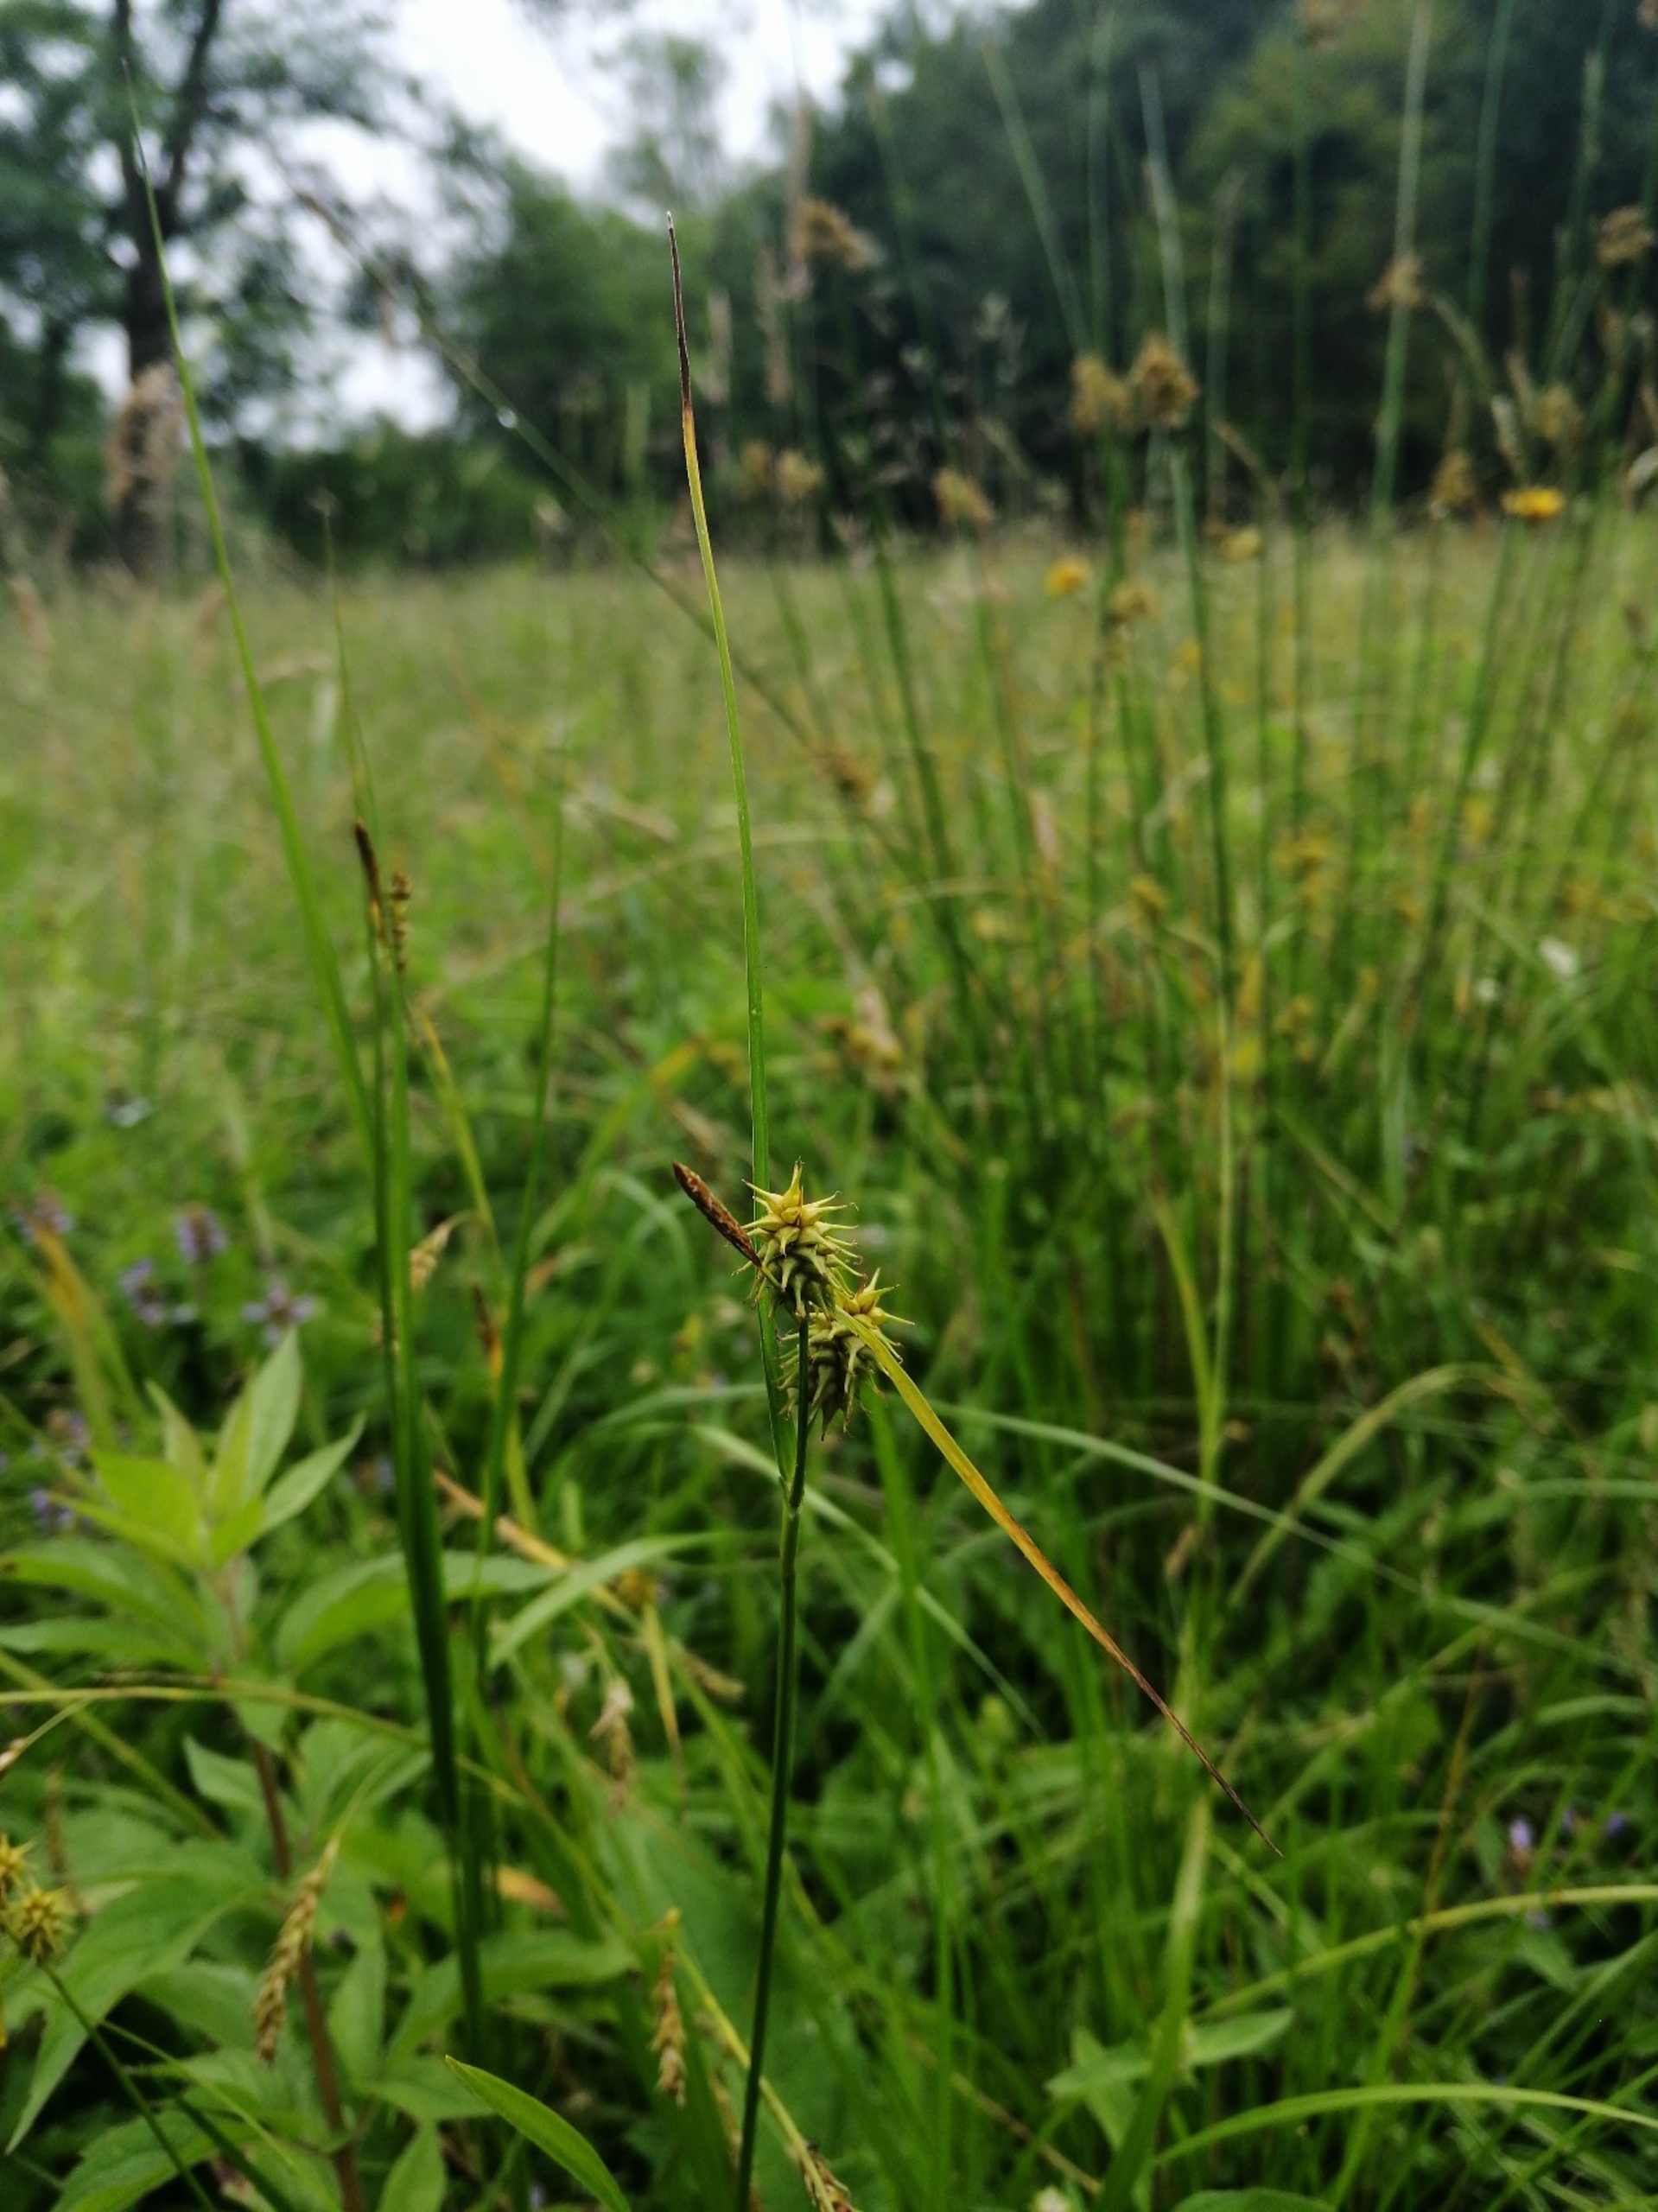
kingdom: Plantae
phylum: Tracheophyta
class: Liliopsida
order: Poales
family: Cyperaceae
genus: Carex
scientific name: Carex flava
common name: Gul star
